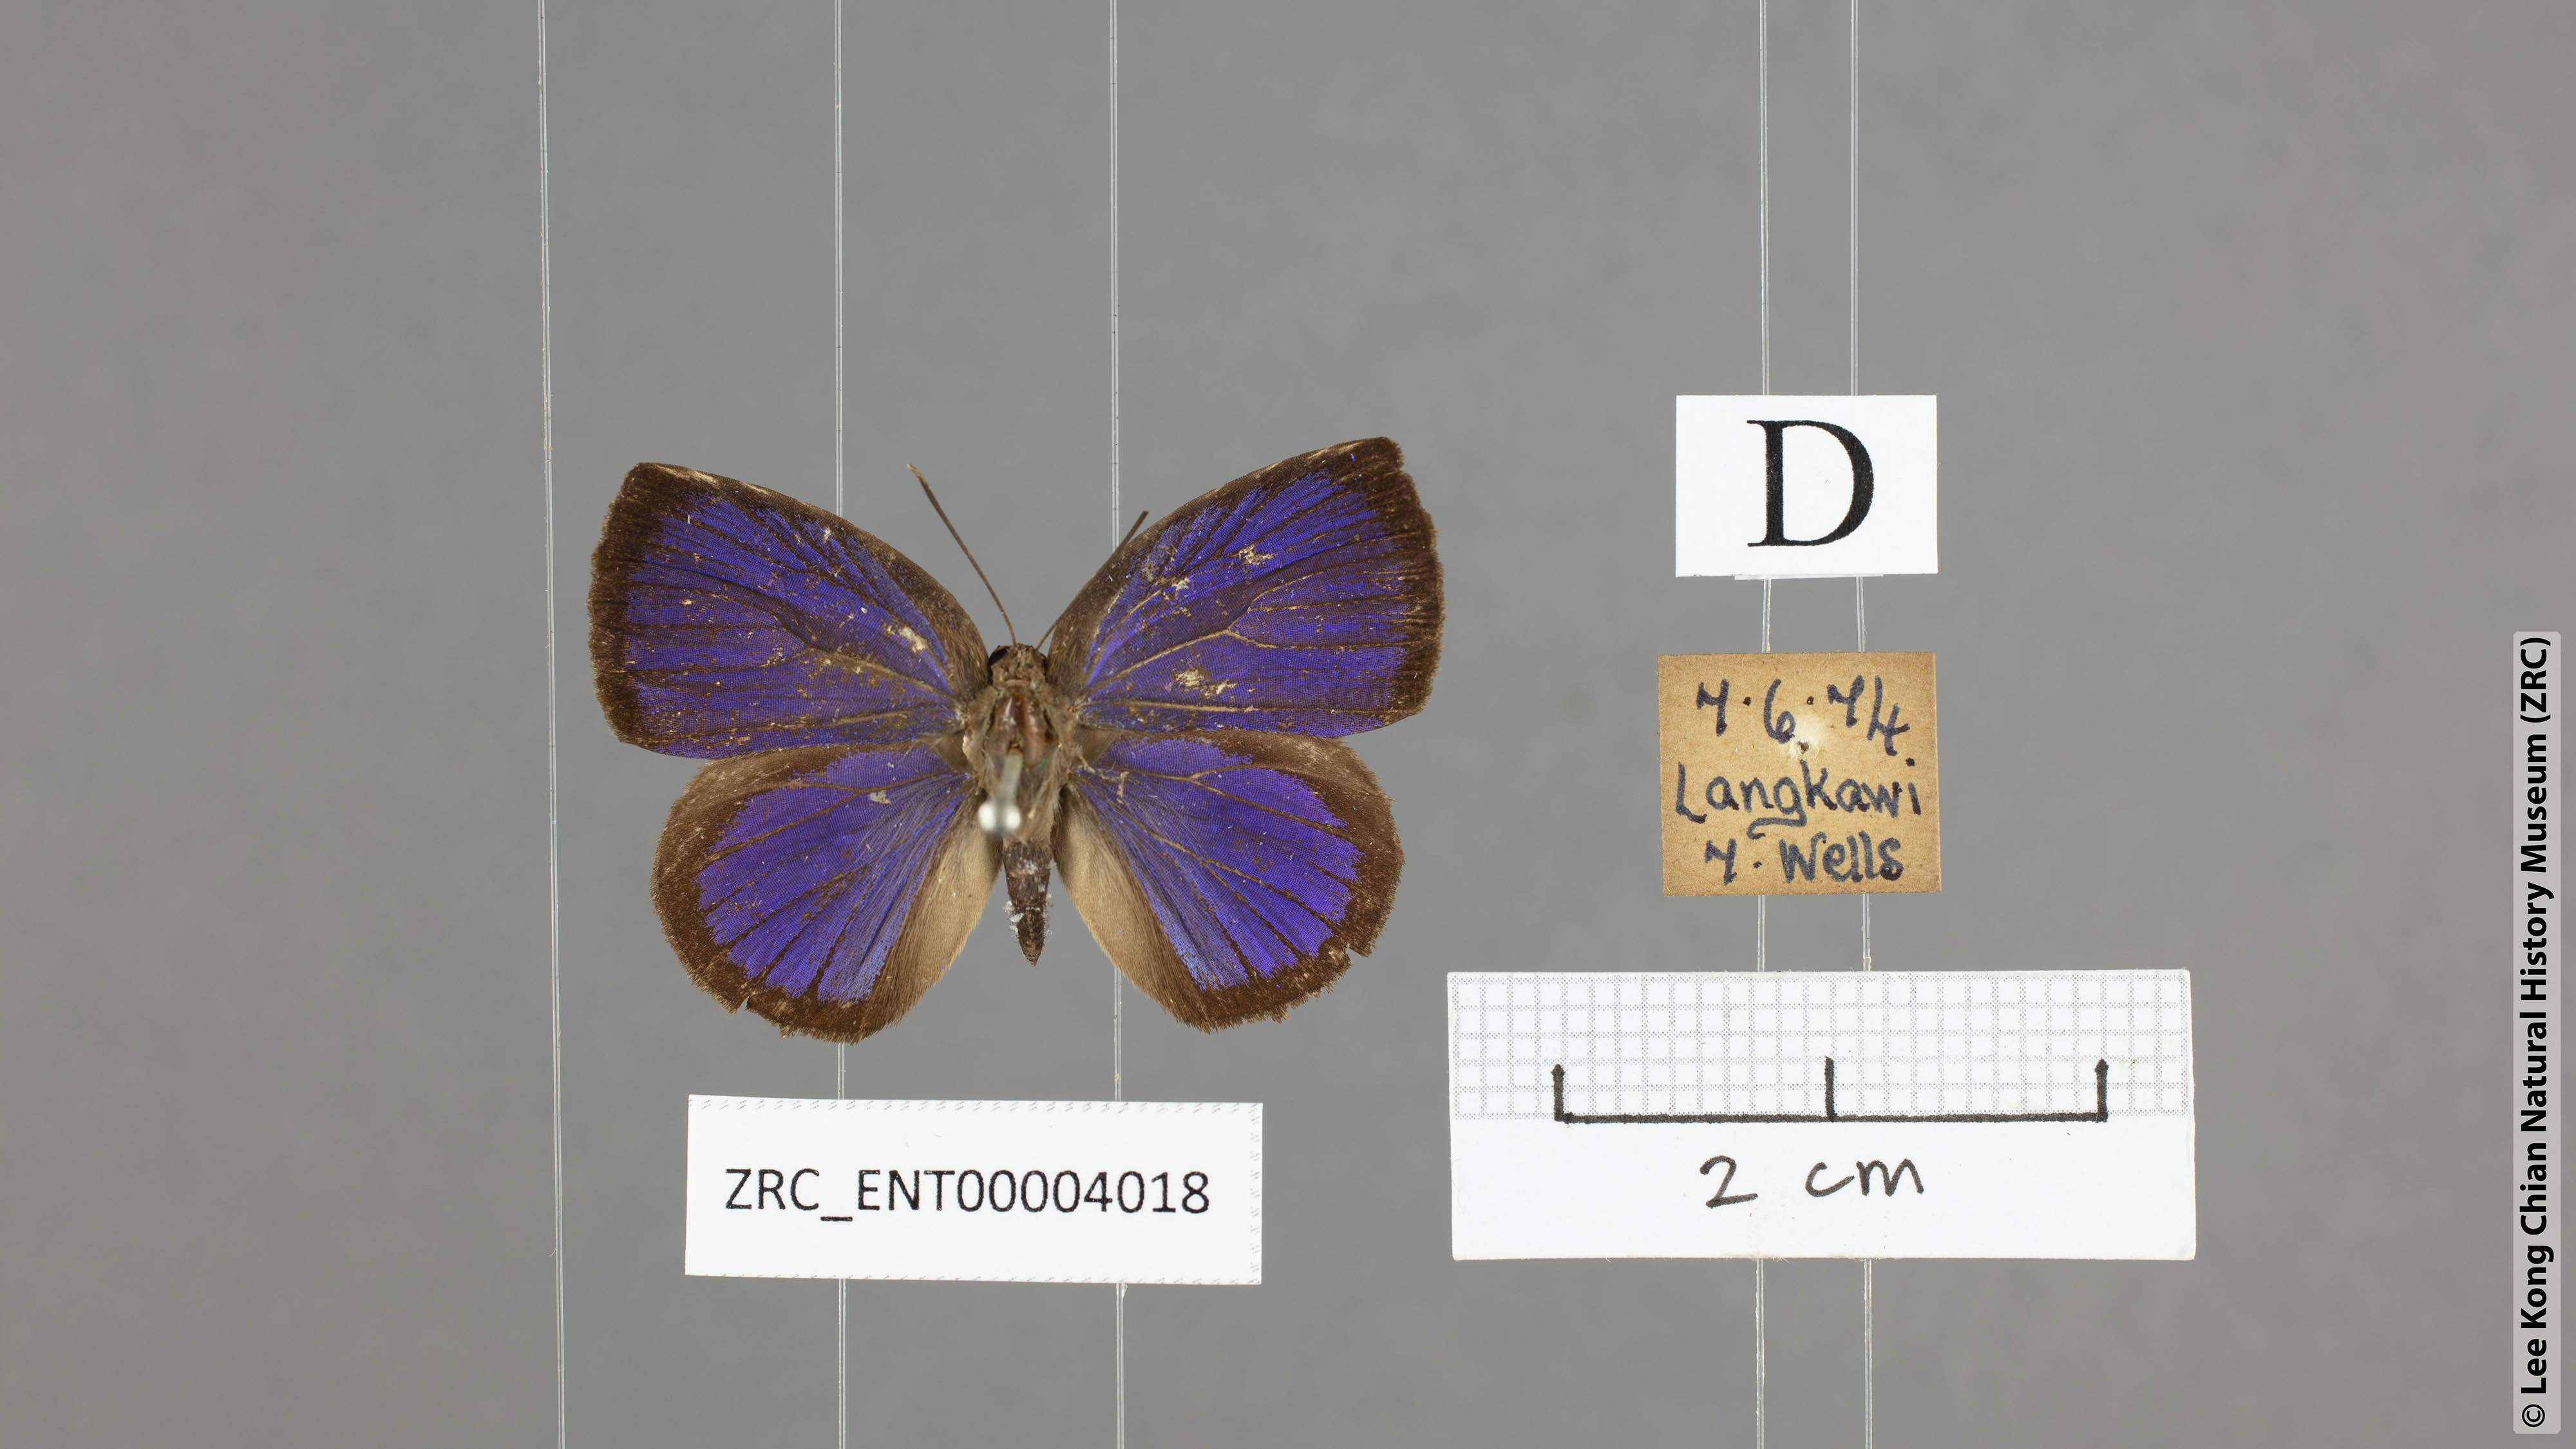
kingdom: Animalia
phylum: Arthropoda
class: Insecta
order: Lepidoptera
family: Lycaenidae
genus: Arhopala
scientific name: Arhopala perimuta
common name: Yellowdisc oakblue
